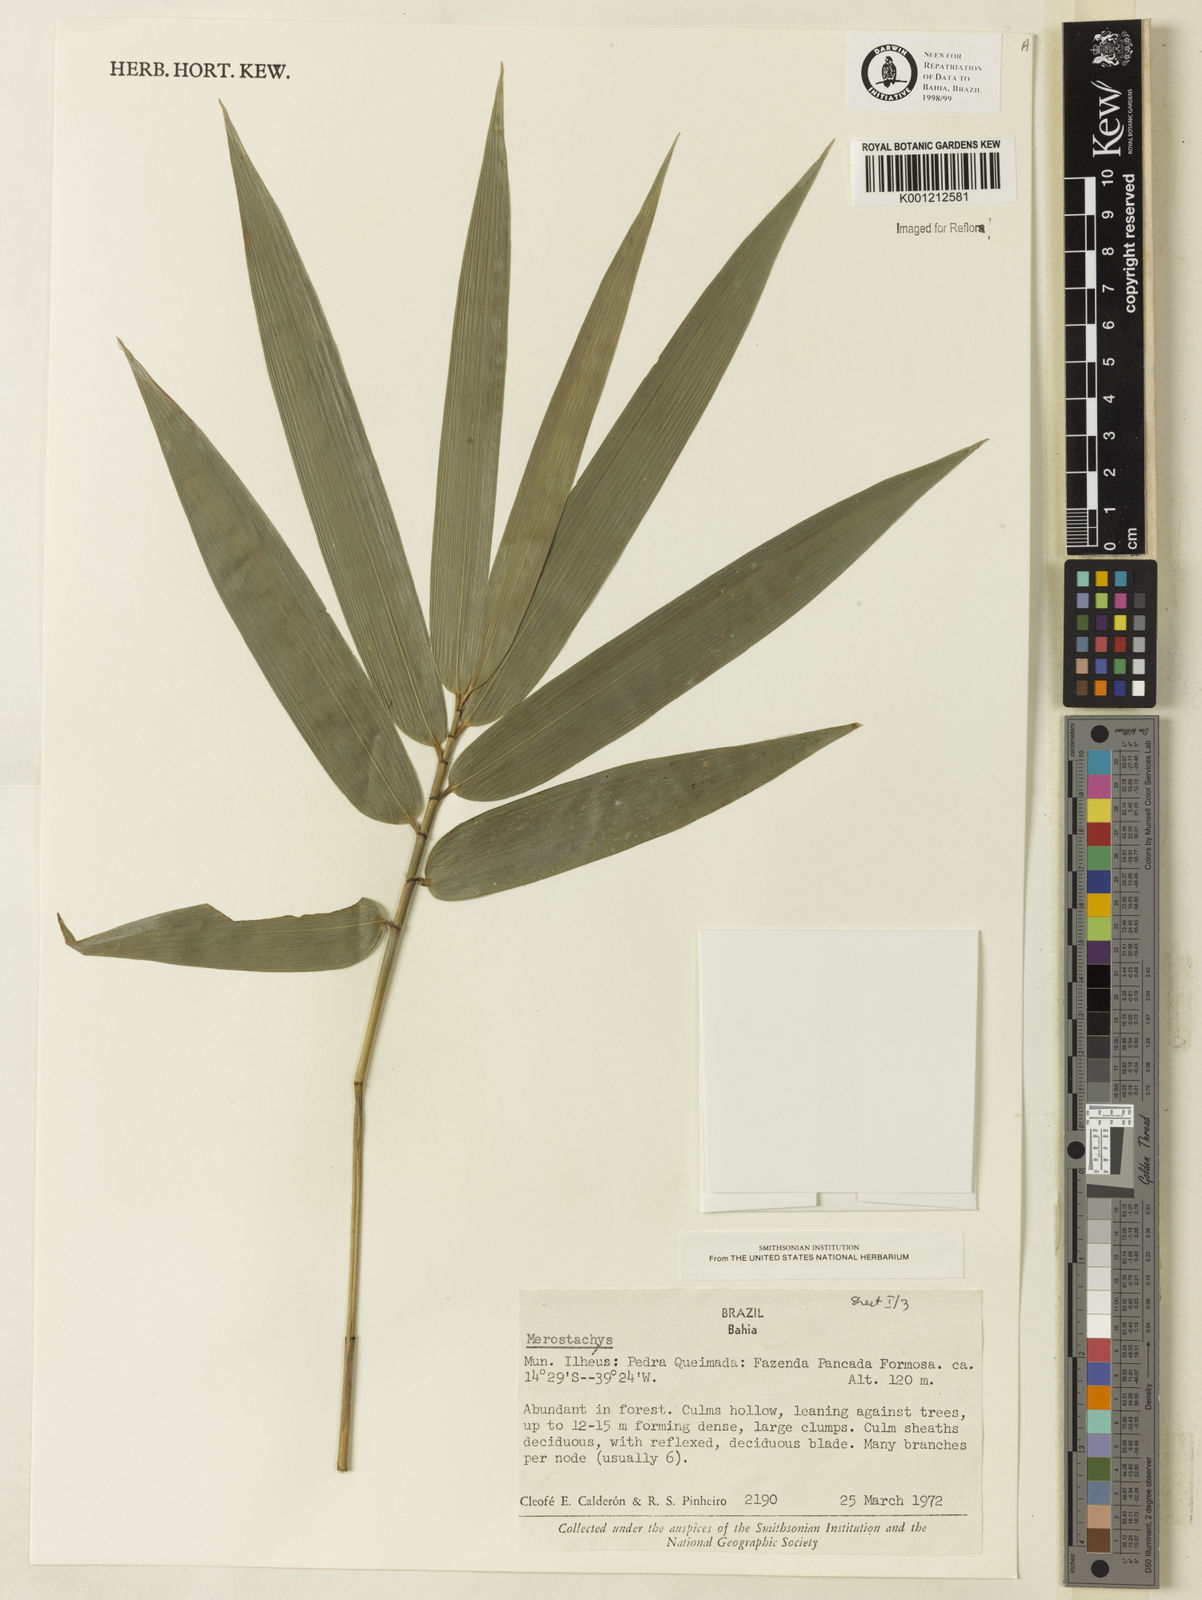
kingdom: Plantae
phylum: Tracheophyta
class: Liliopsida
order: Poales
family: Poaceae
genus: Merostachys
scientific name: Merostachys
